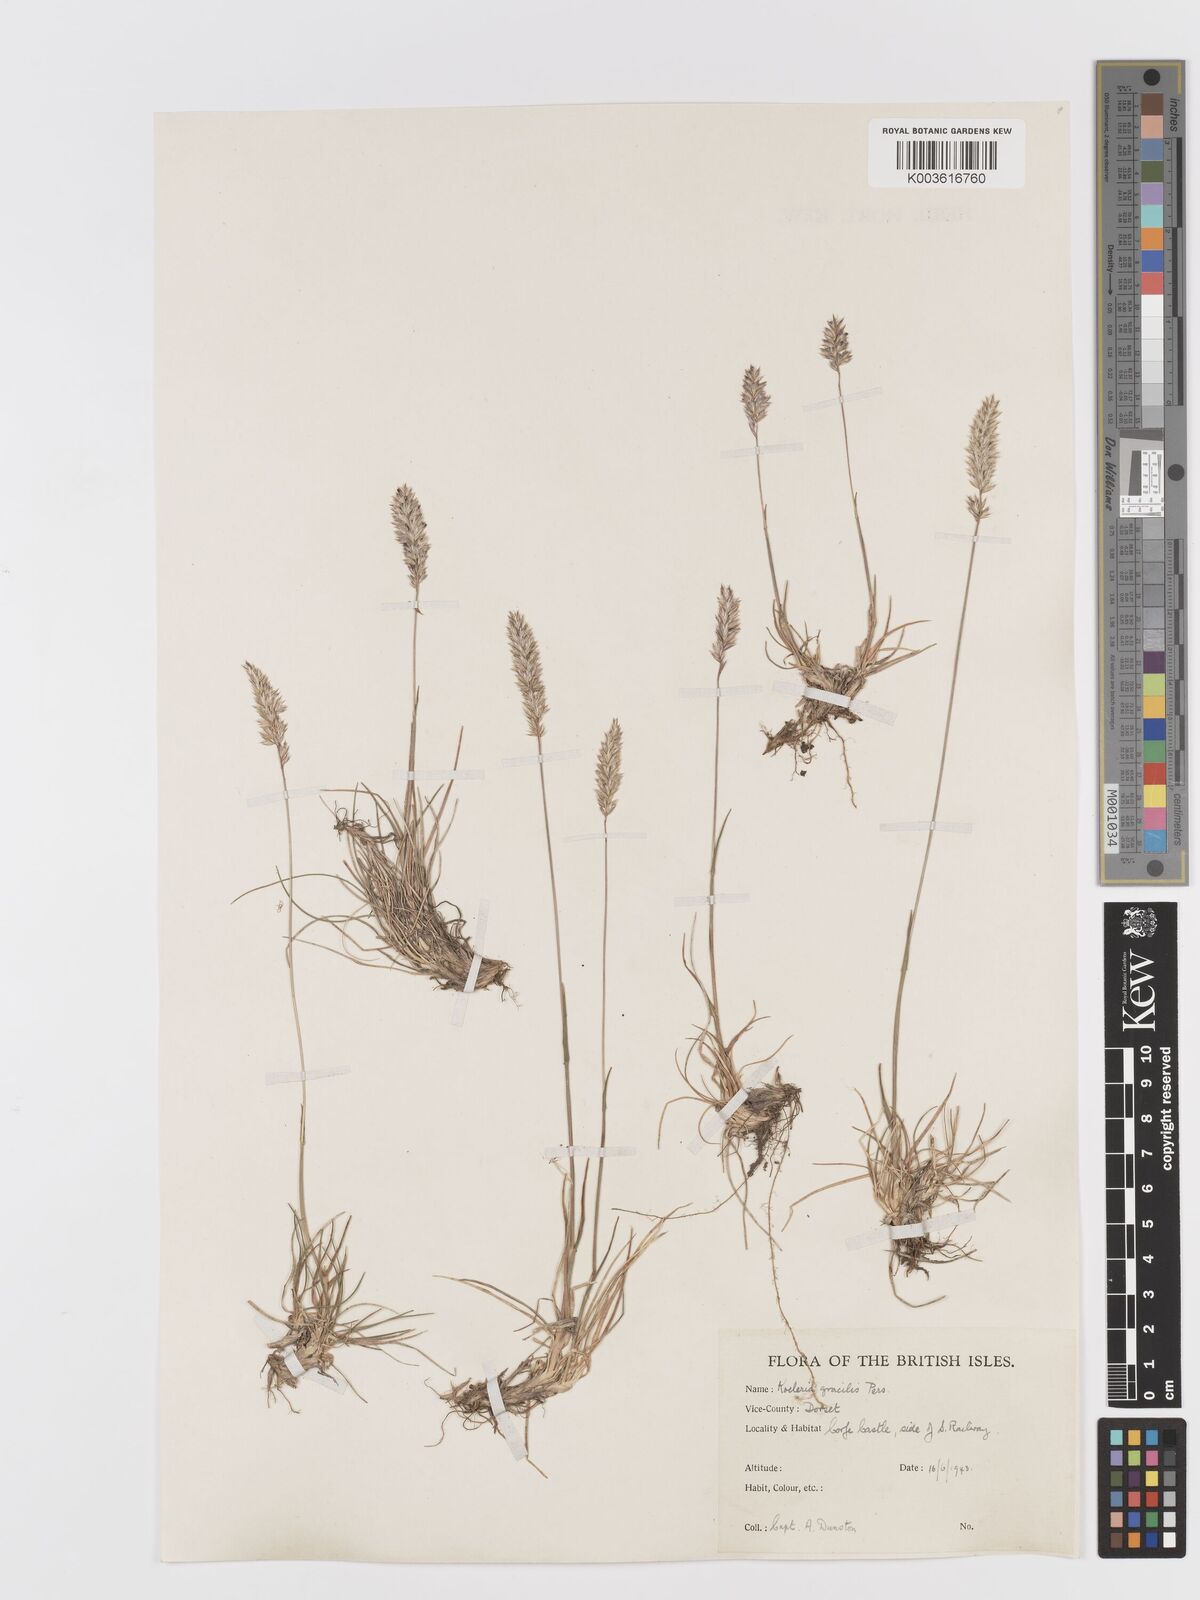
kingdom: Plantae
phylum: Tracheophyta
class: Liliopsida
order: Poales
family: Poaceae
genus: Koeleria
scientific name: Koeleria
